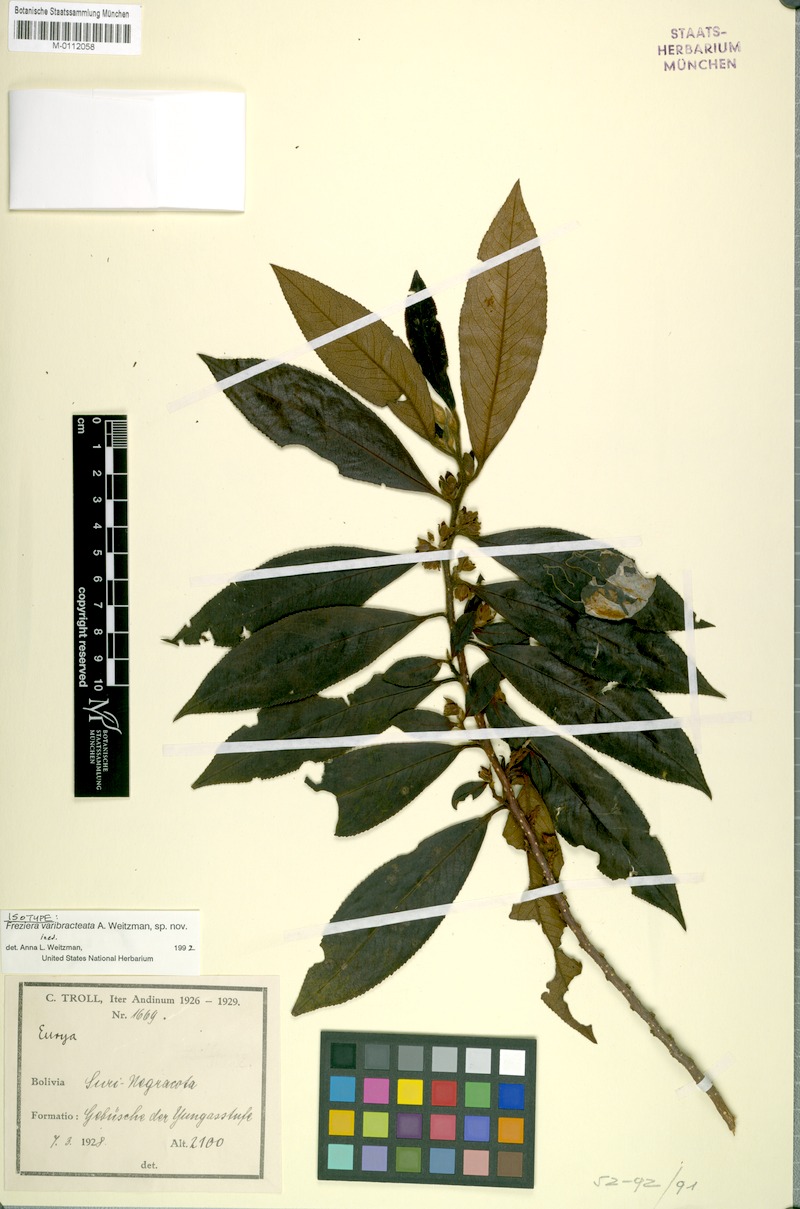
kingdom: Plantae
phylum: Tracheophyta
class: Magnoliopsida
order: Ericales
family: Pentaphylacaceae
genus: Freziera
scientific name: Freziera
